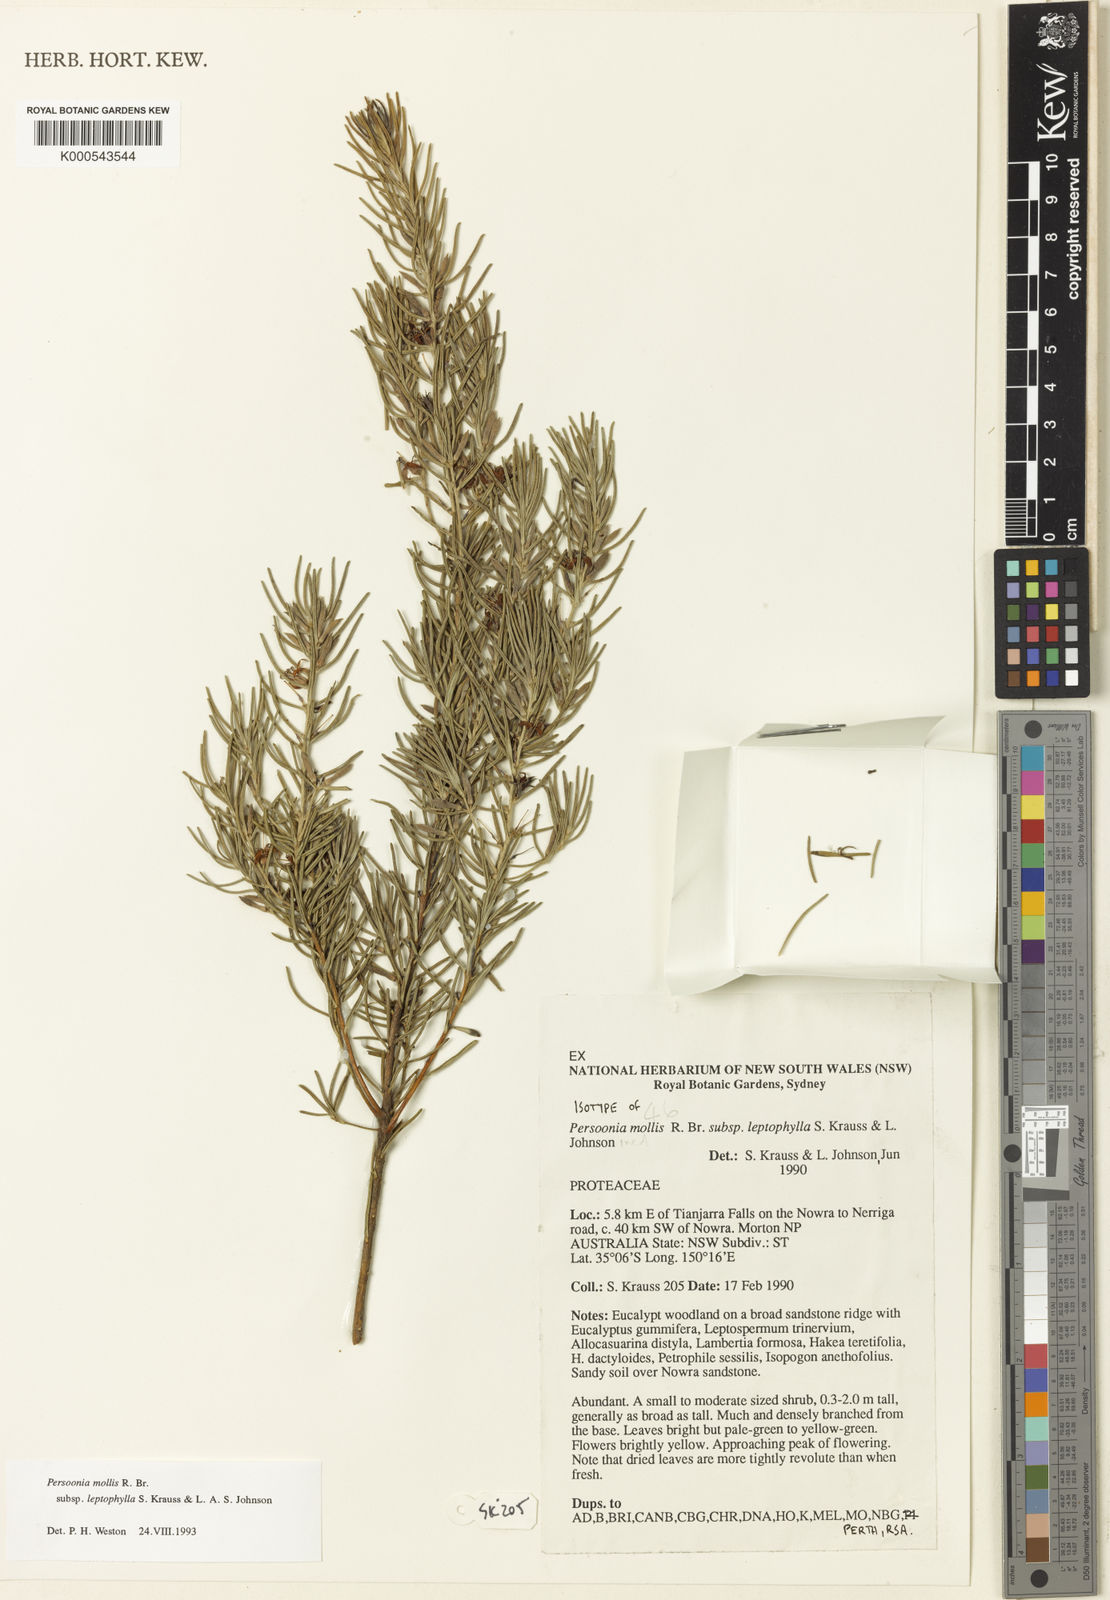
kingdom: Plantae
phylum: Tracheophyta
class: Magnoliopsida
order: Proteales
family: Proteaceae
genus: Persoonia
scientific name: Persoonia mollis
